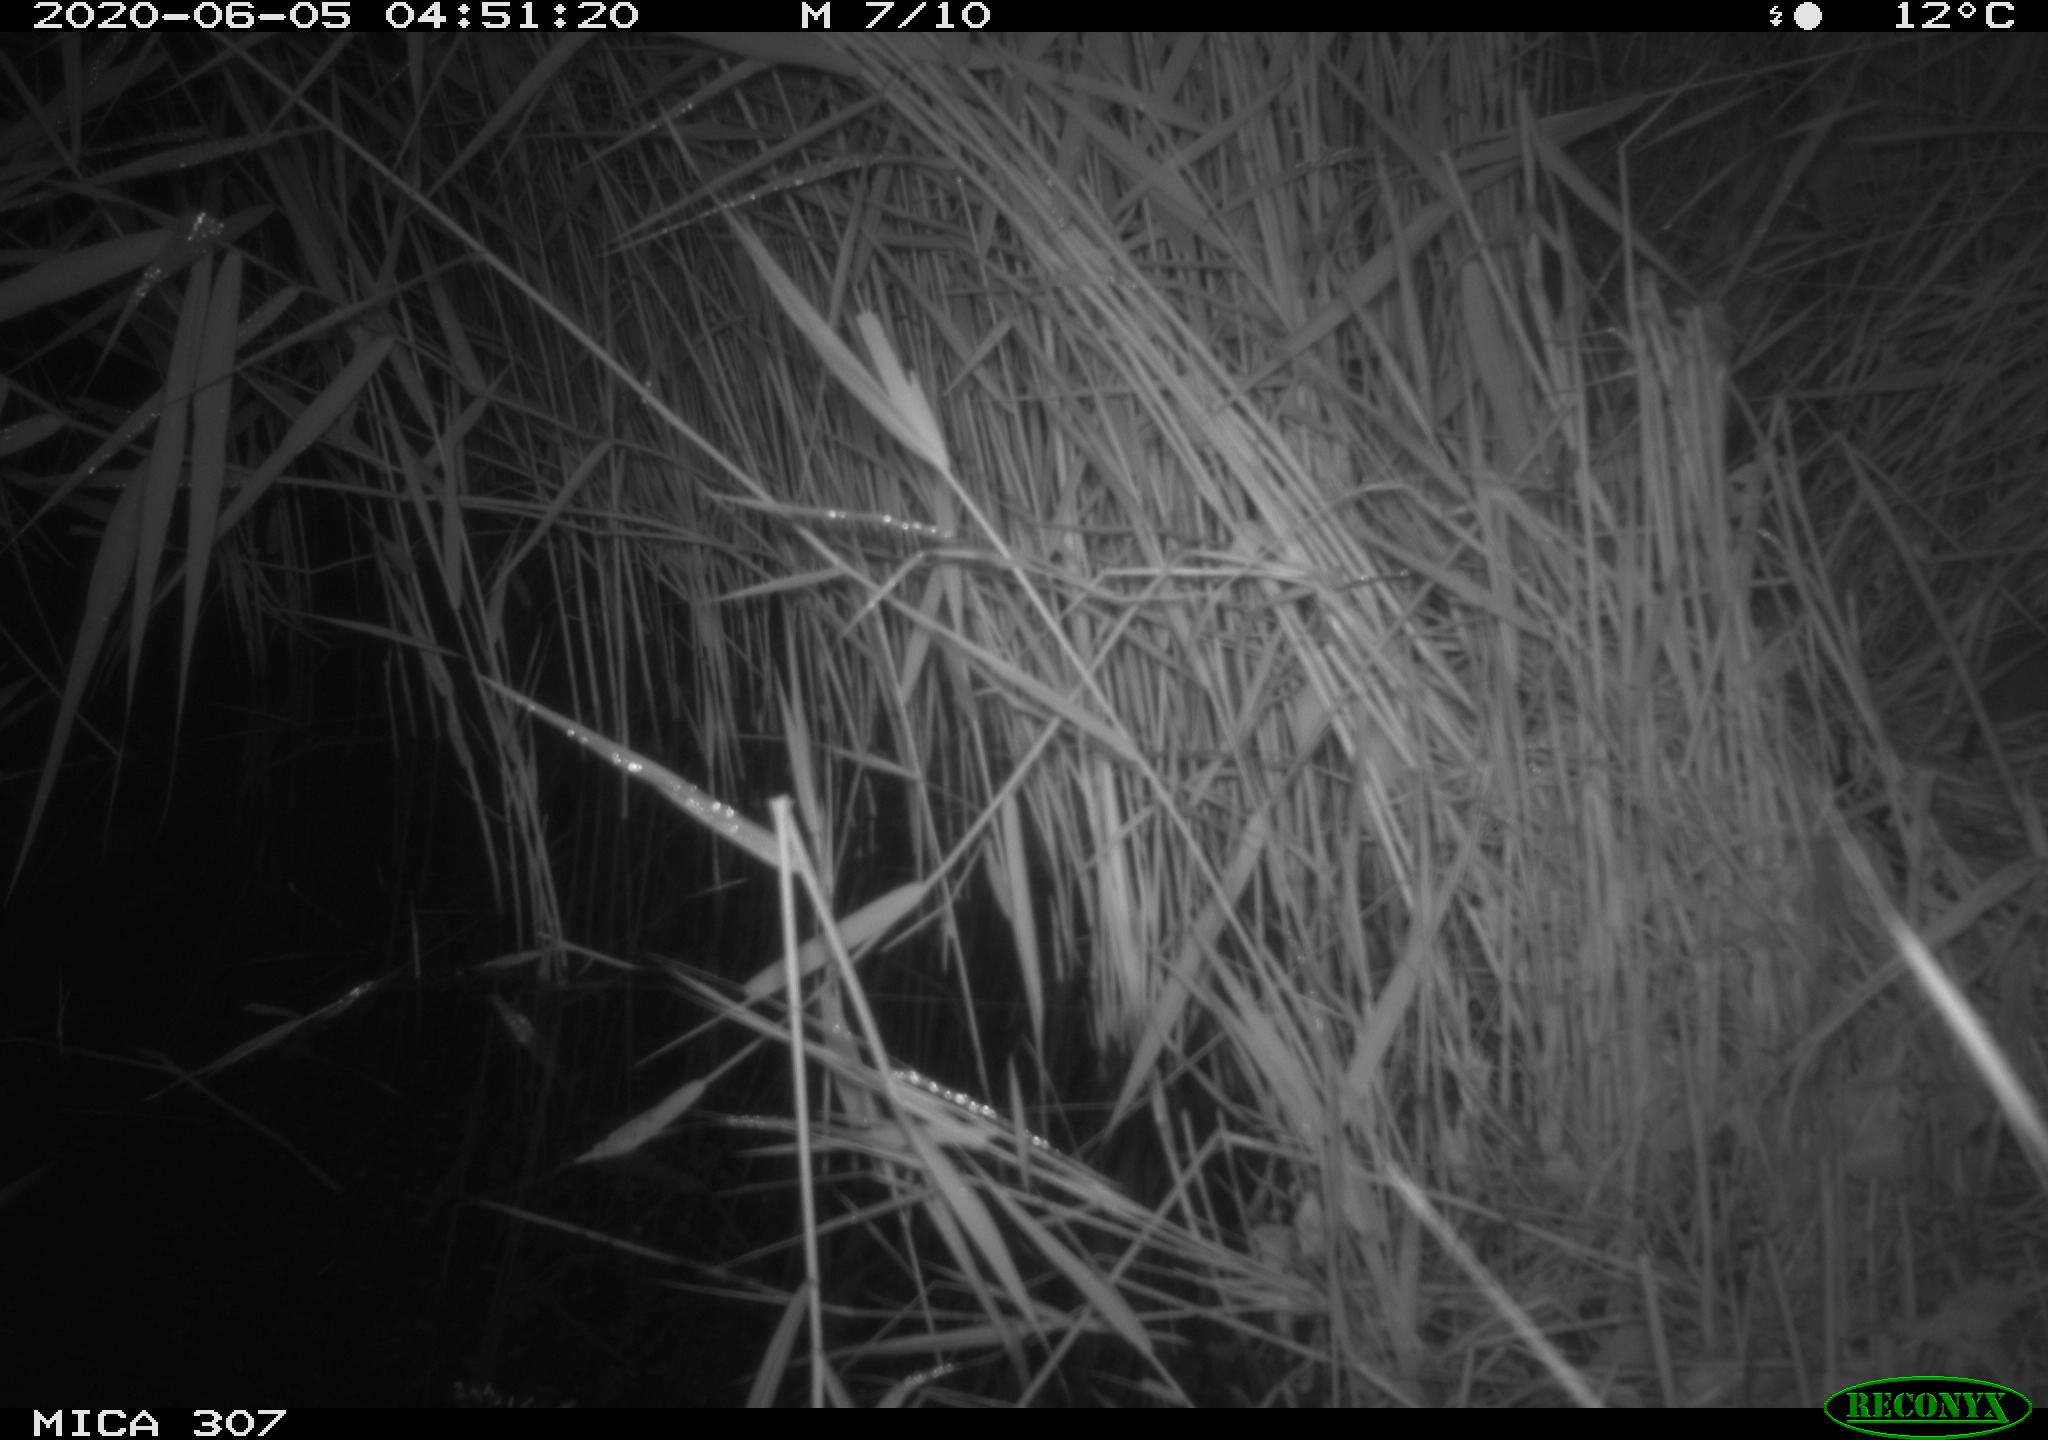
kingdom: Animalia
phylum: Chordata
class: Mammalia
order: Rodentia
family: Muridae
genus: Rattus
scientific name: Rattus norvegicus
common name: Brown rat
